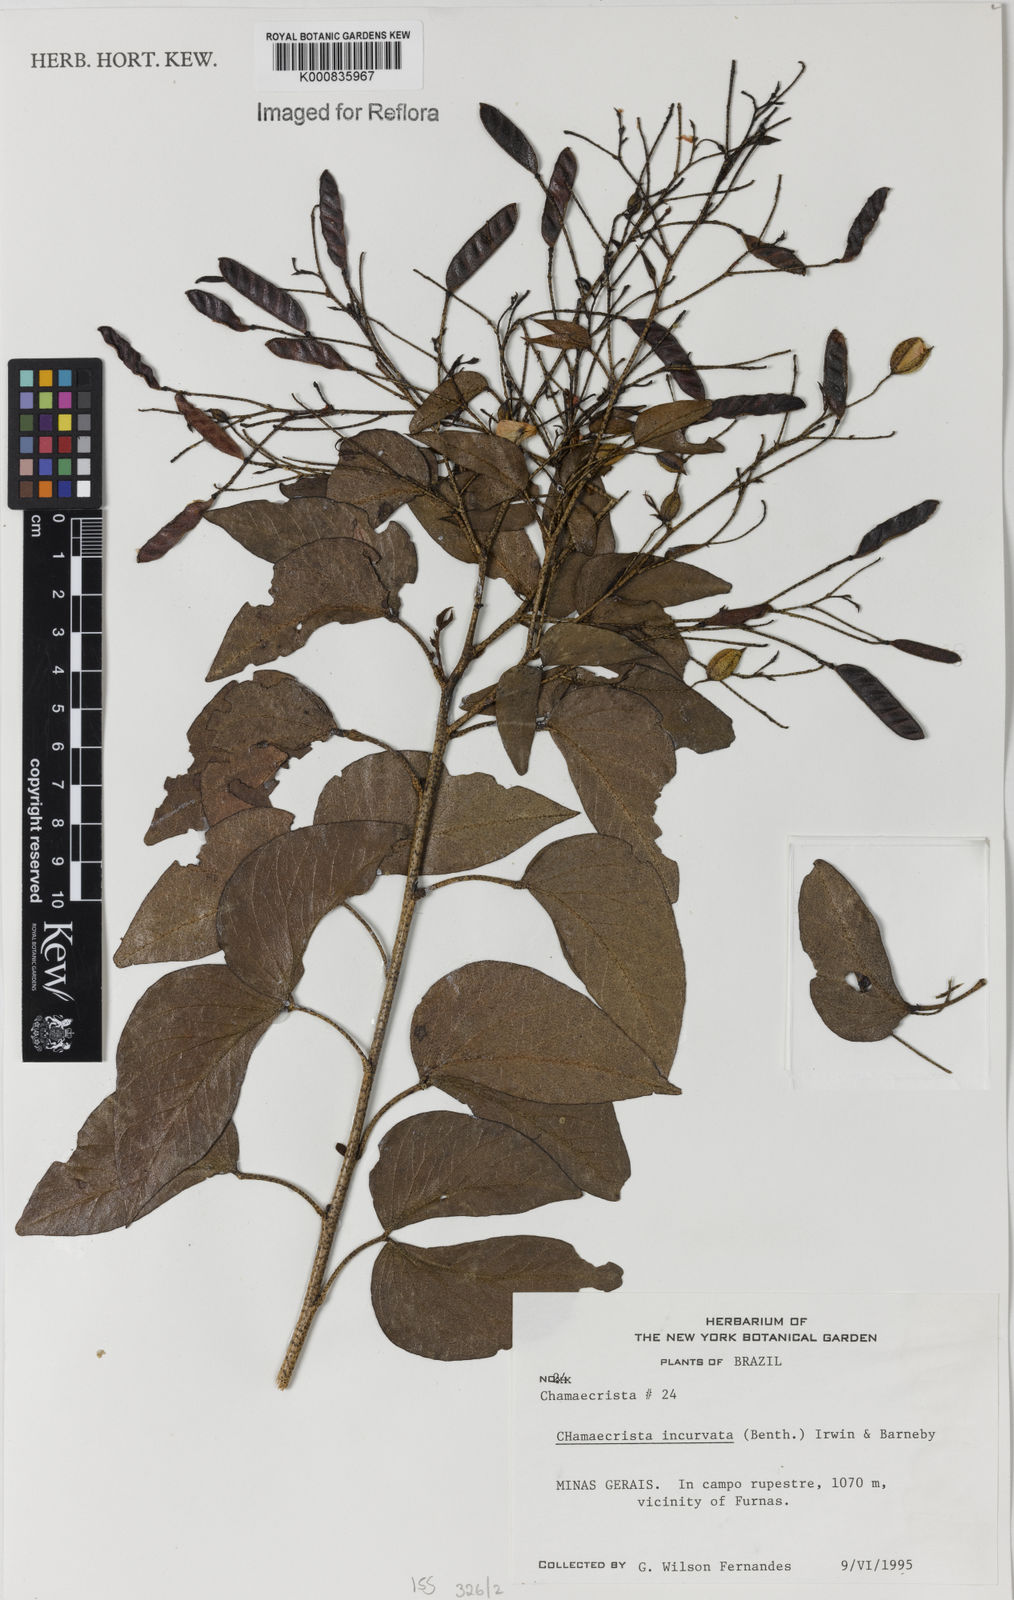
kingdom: Plantae
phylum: Tracheophyta
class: Magnoliopsida
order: Fabales
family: Fabaceae
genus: Chamaecrista
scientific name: Chamaecrista incurvata
